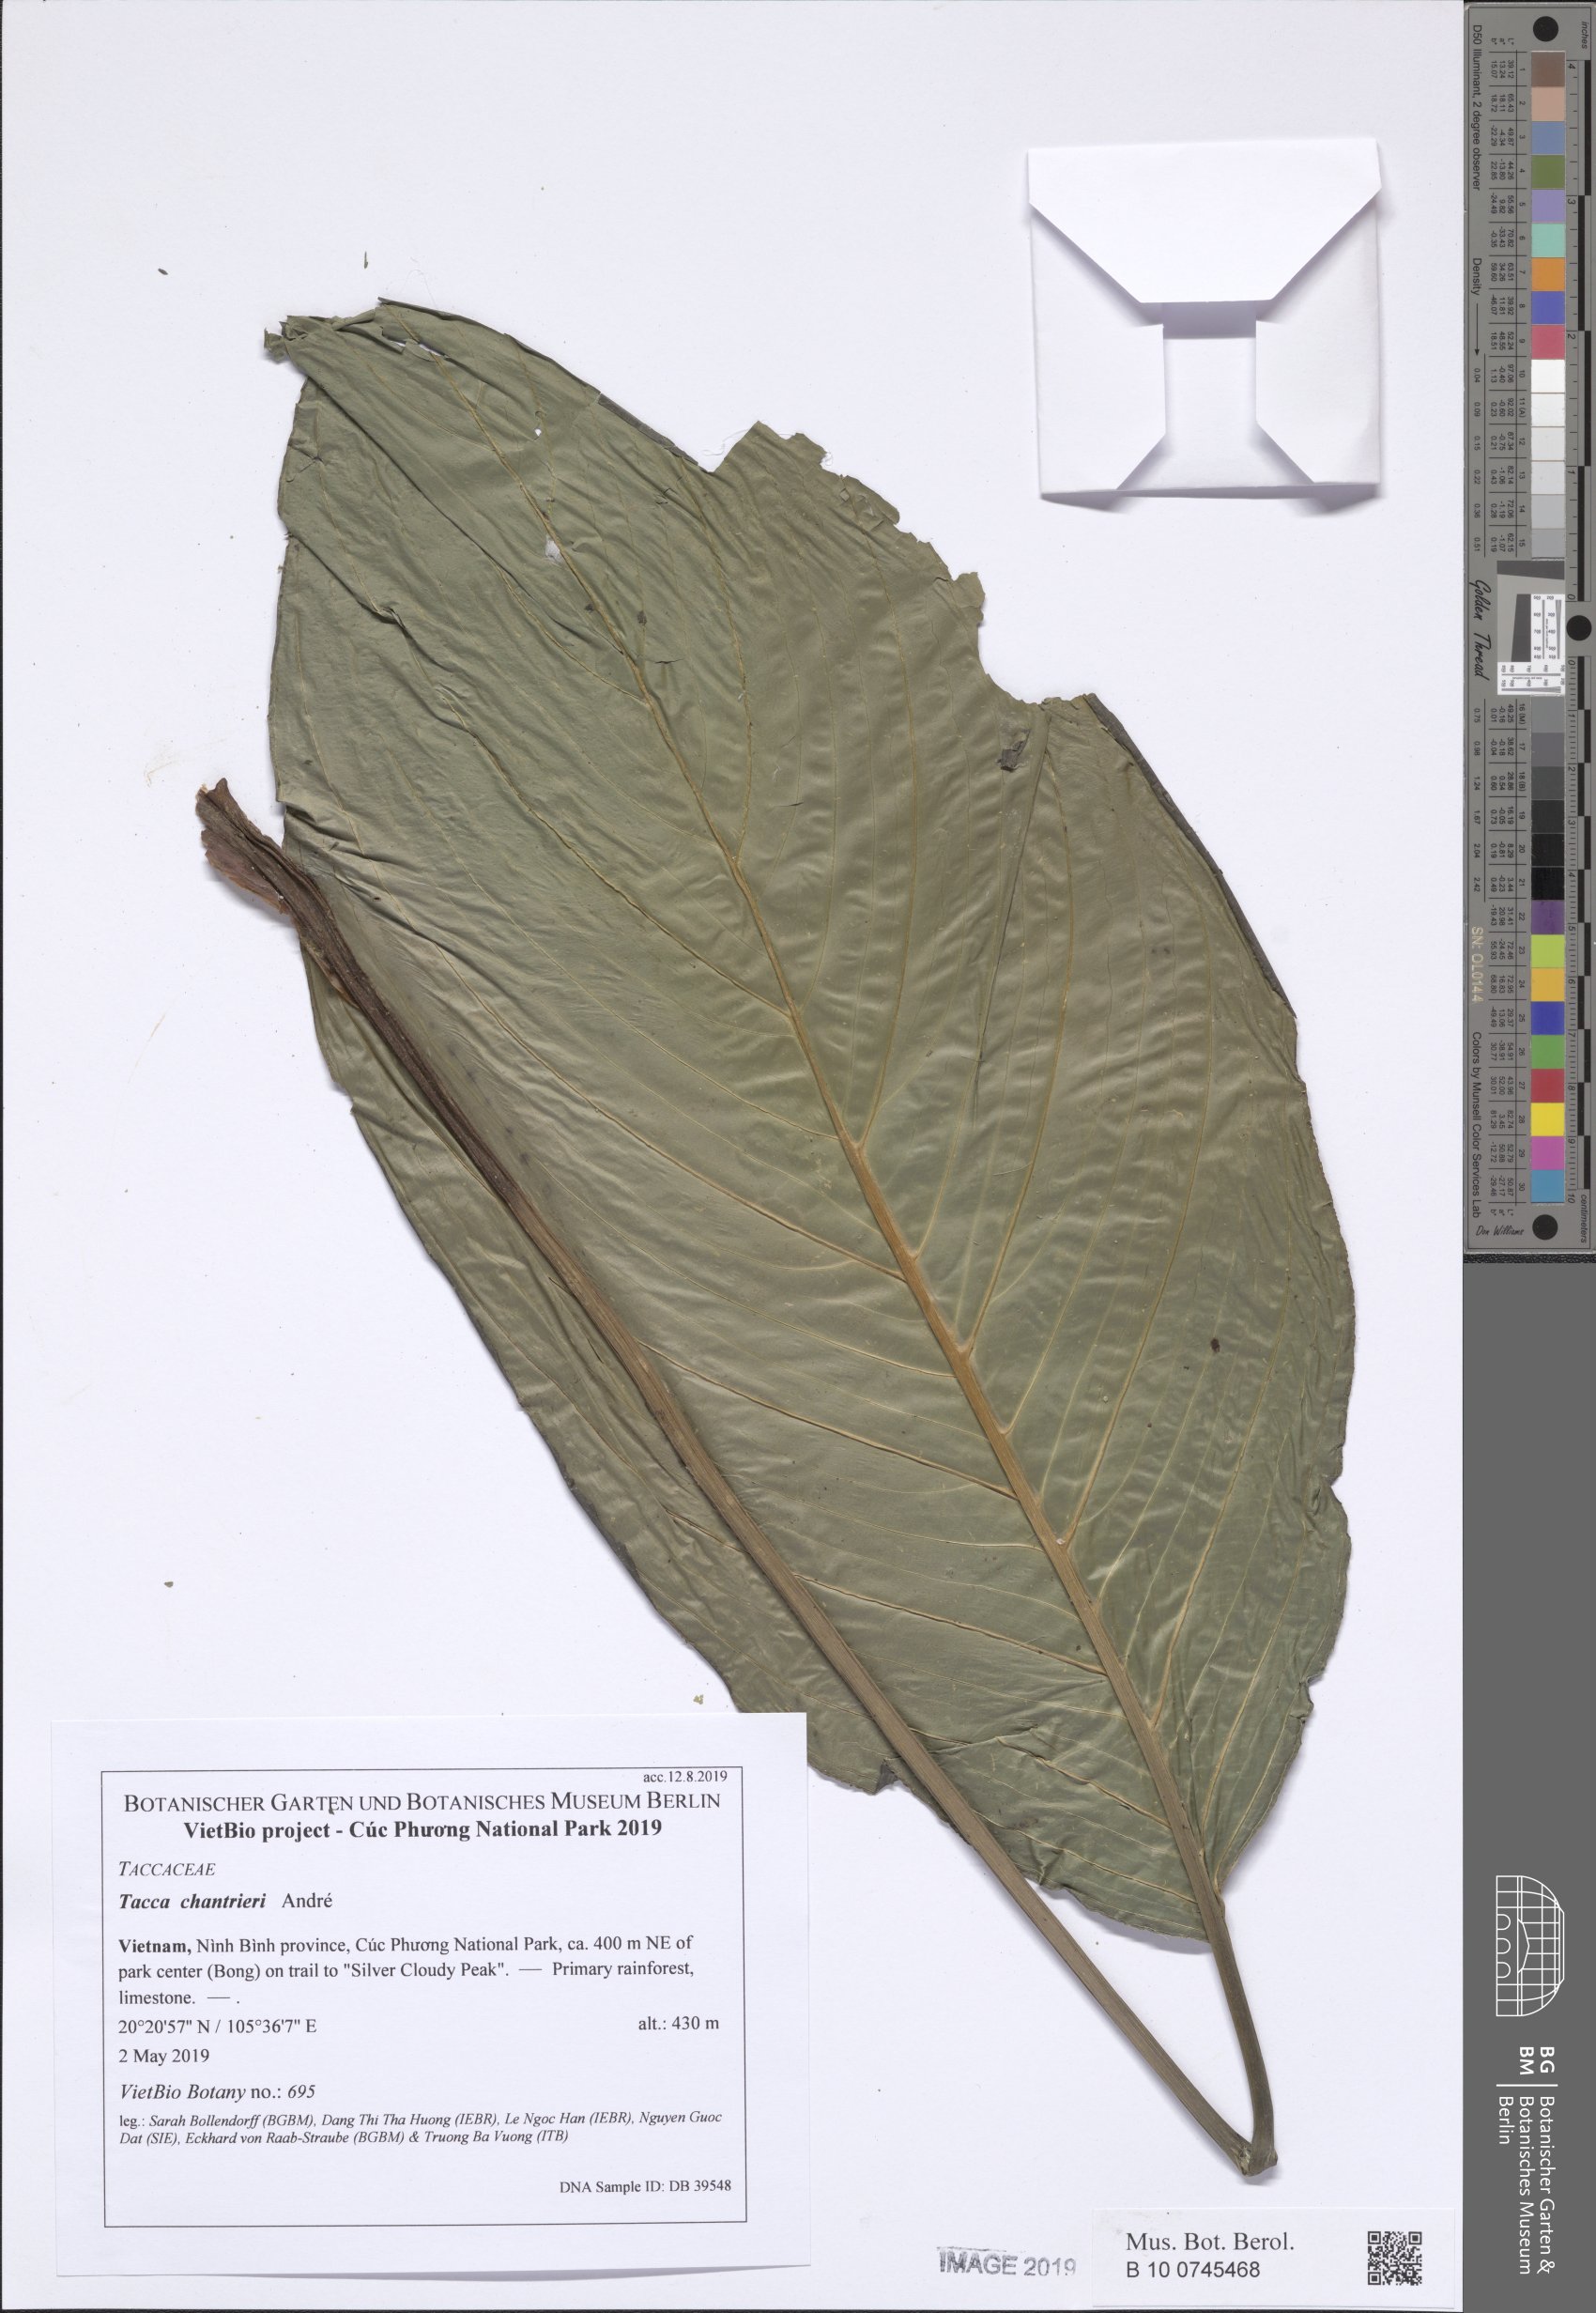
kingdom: Plantae
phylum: Tracheophyta
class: Liliopsida
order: Dioscoreales
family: Dioscoreaceae
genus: Tacca
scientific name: Tacca chantrieri
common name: Cat's-whiskers
